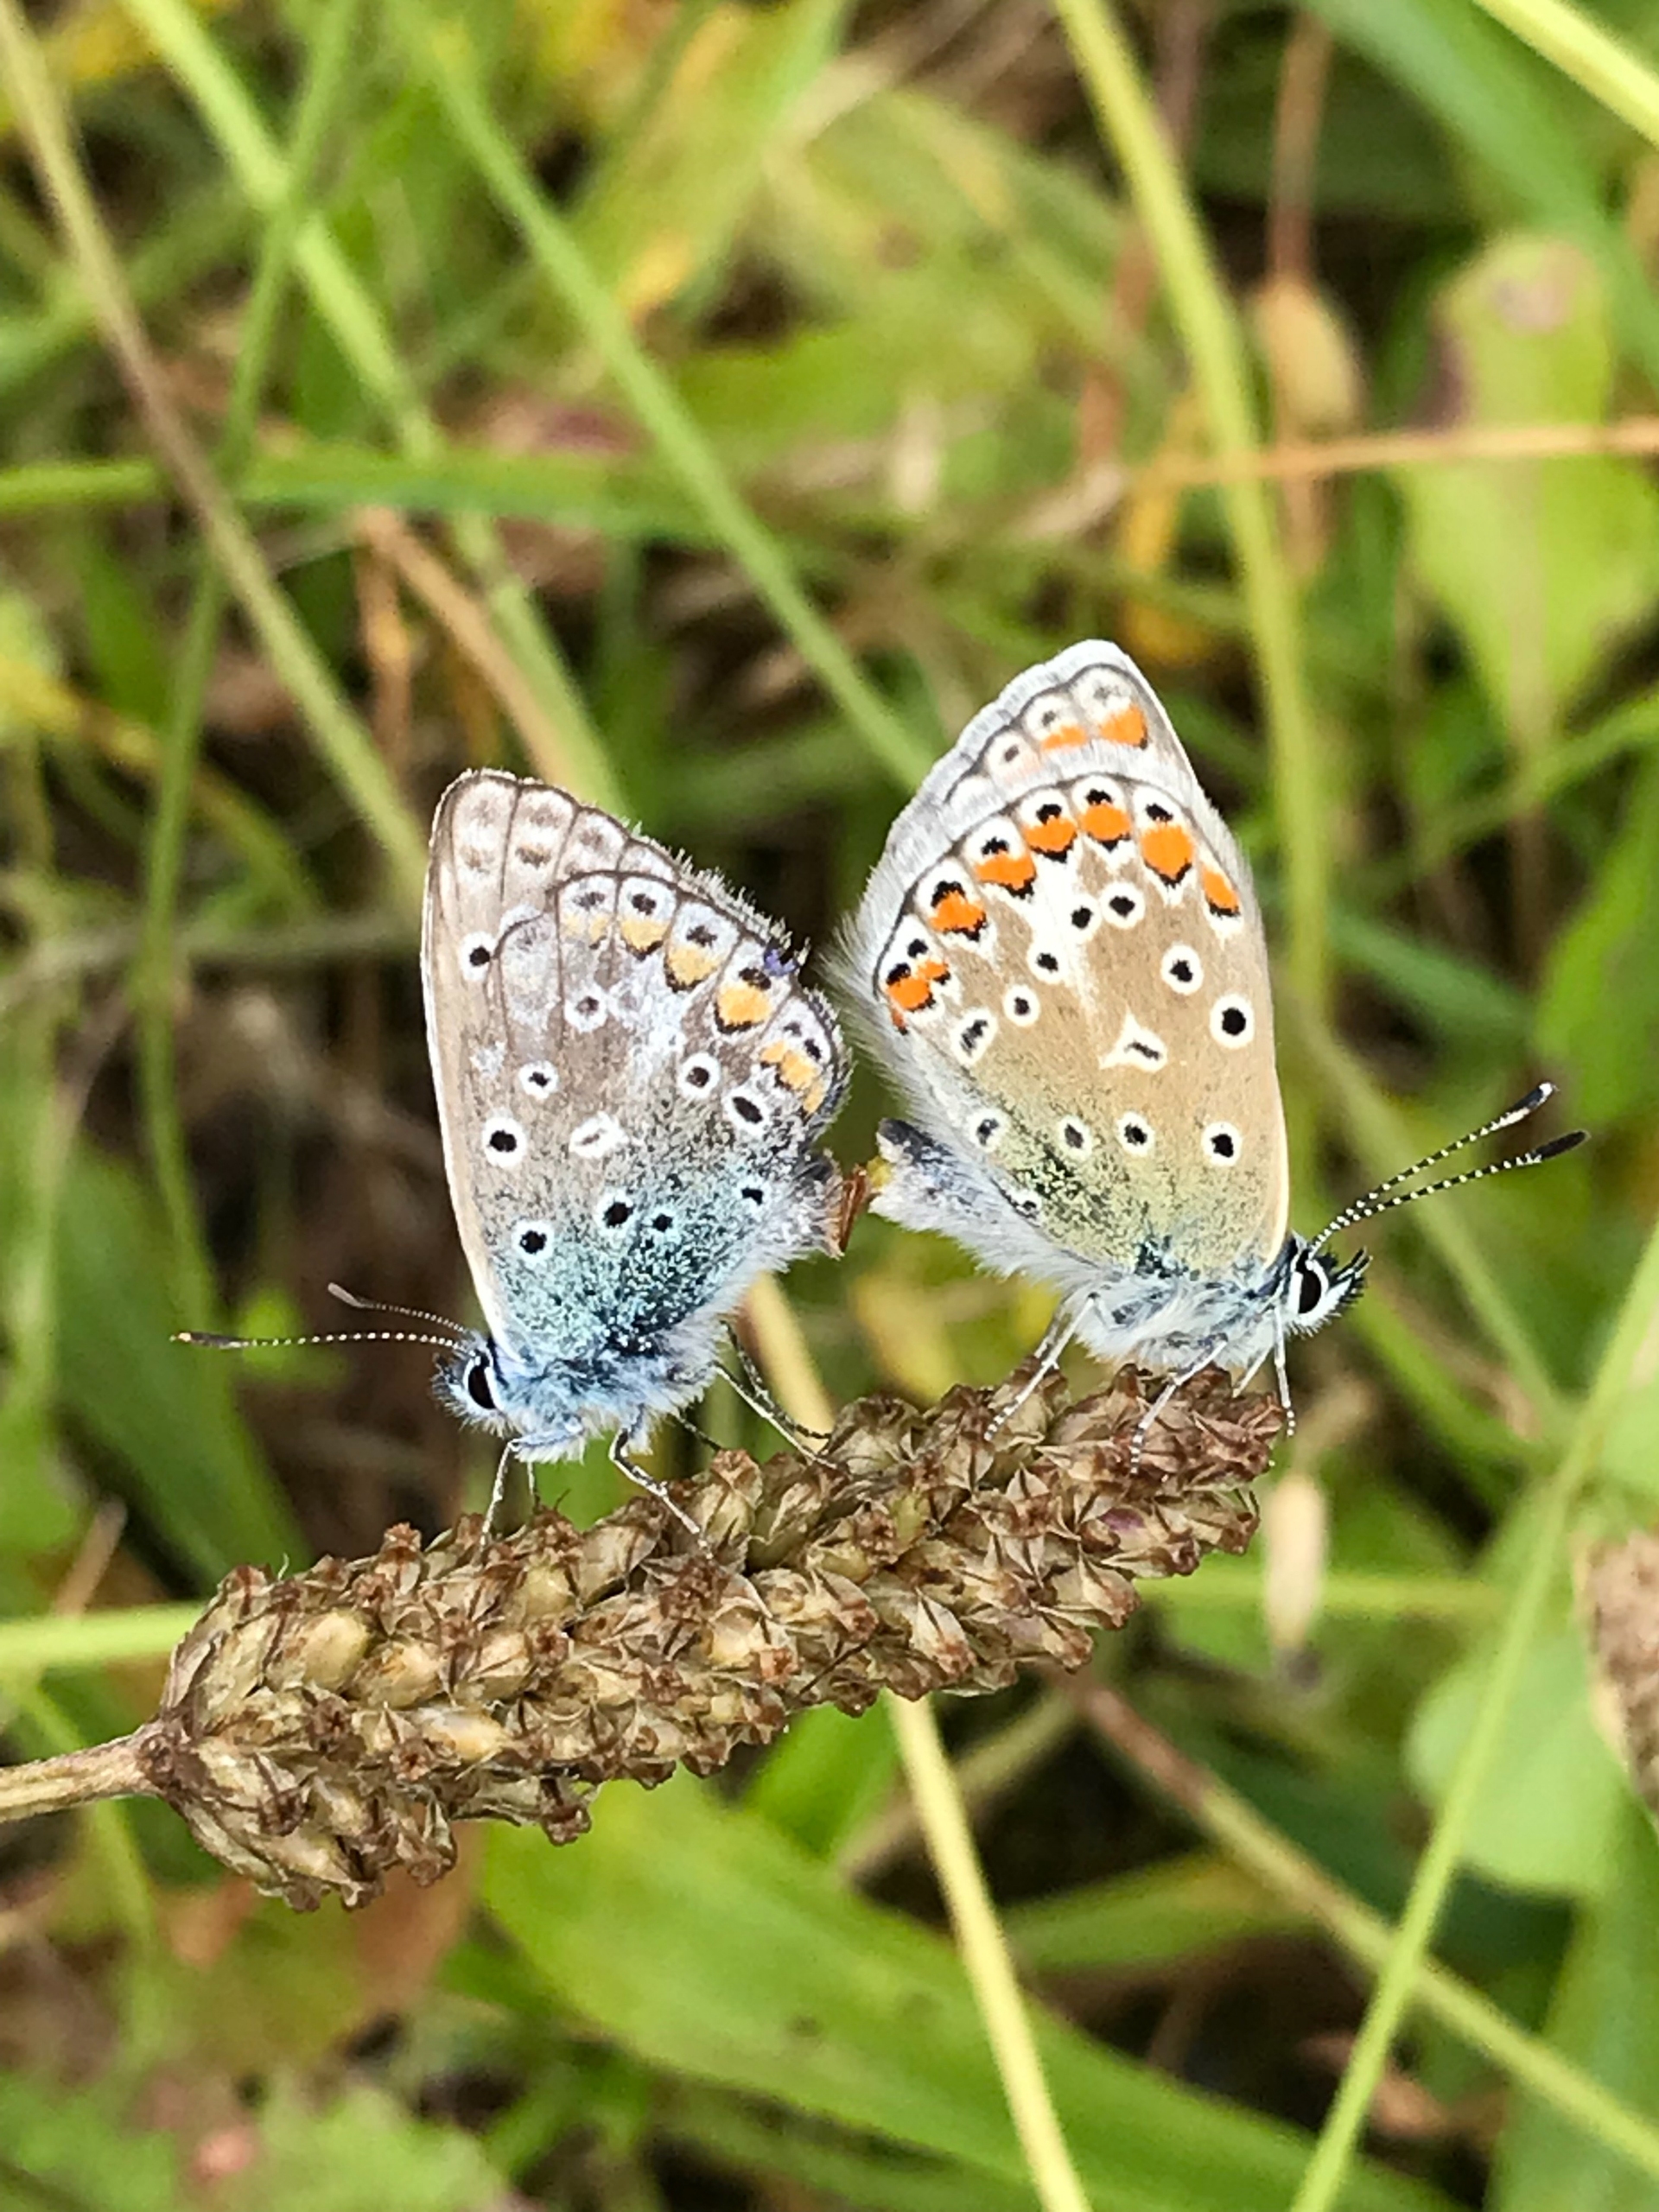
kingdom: Animalia
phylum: Arthropoda
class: Insecta
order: Lepidoptera
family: Lycaenidae
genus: Polyommatus
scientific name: Polyommatus icarus
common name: Almindelig blåfugl
